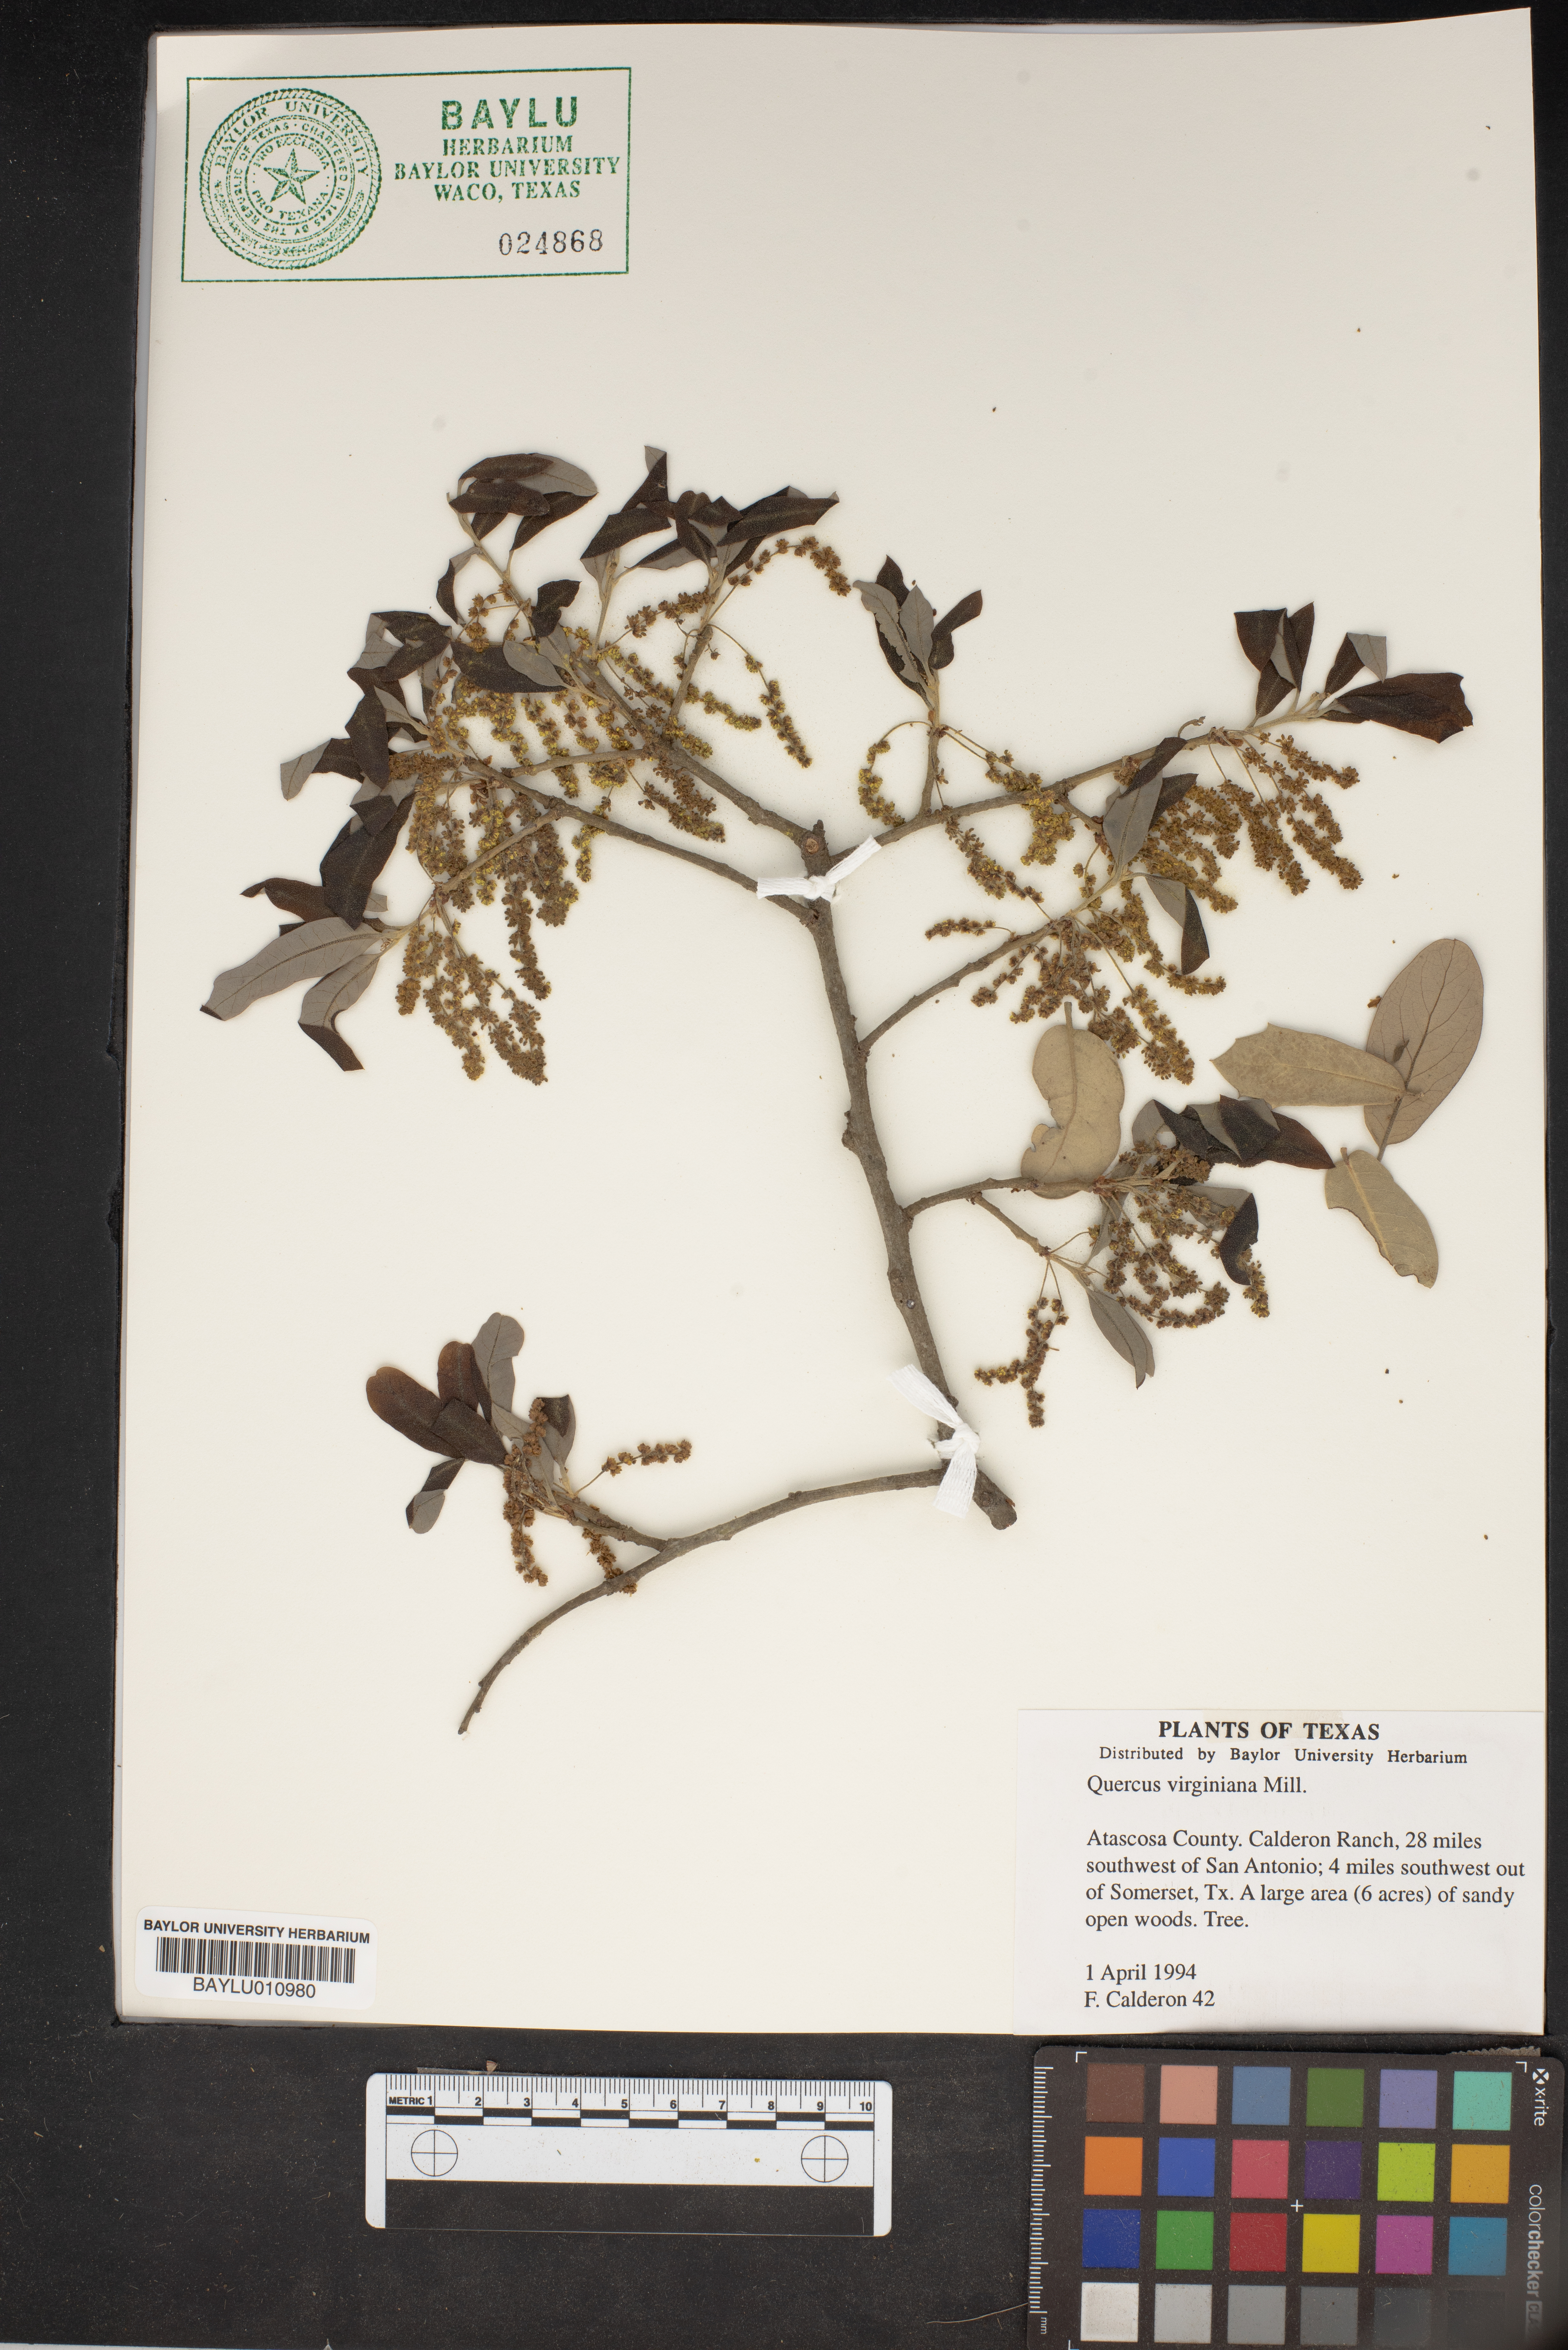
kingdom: Plantae
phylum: Tracheophyta
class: Magnoliopsida
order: Fagales
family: Fagaceae
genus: Quercus
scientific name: Quercus virginiana
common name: Southern live oak
